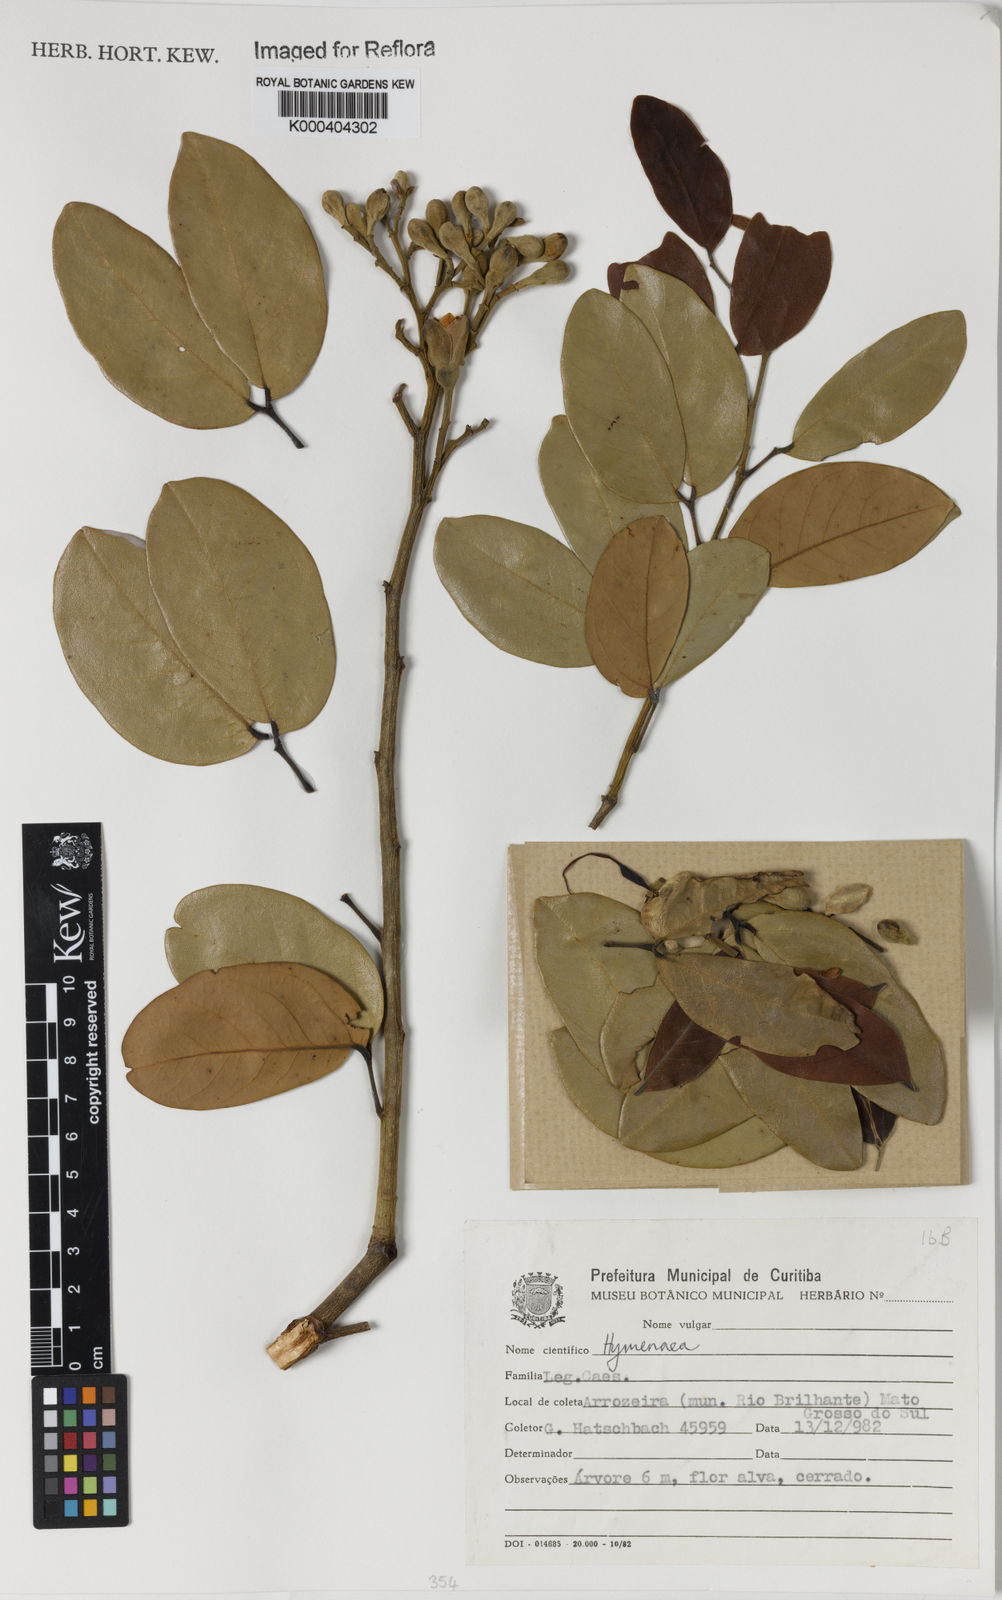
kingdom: Plantae
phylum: Tracheophyta
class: Magnoliopsida
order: Fabales
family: Fabaceae
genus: Hymenaea
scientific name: Hymenaea
